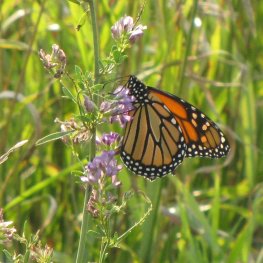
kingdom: Animalia
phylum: Arthropoda
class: Insecta
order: Lepidoptera
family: Nymphalidae
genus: Danaus
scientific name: Danaus plexippus
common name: Monarch
